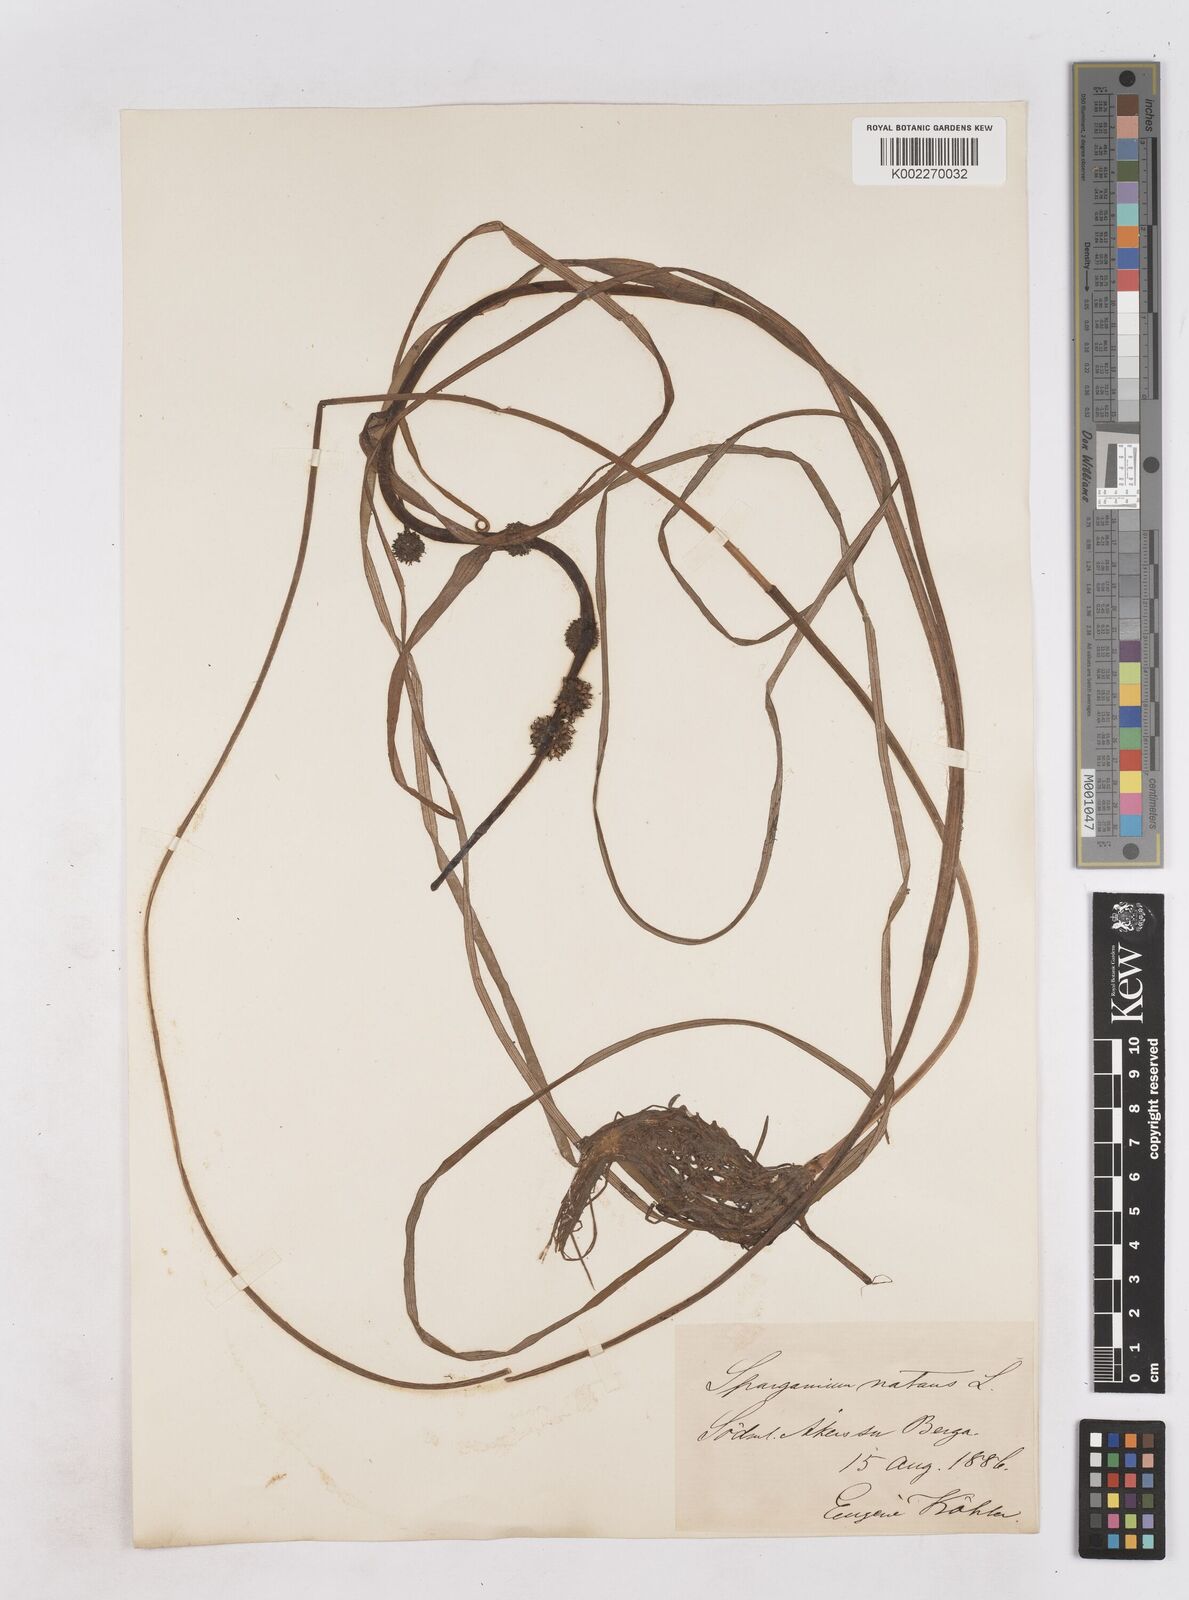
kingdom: Plantae
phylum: Tracheophyta
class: Liliopsida
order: Poales
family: Typhaceae
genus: Sparganium
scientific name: Sparganium gramineum
